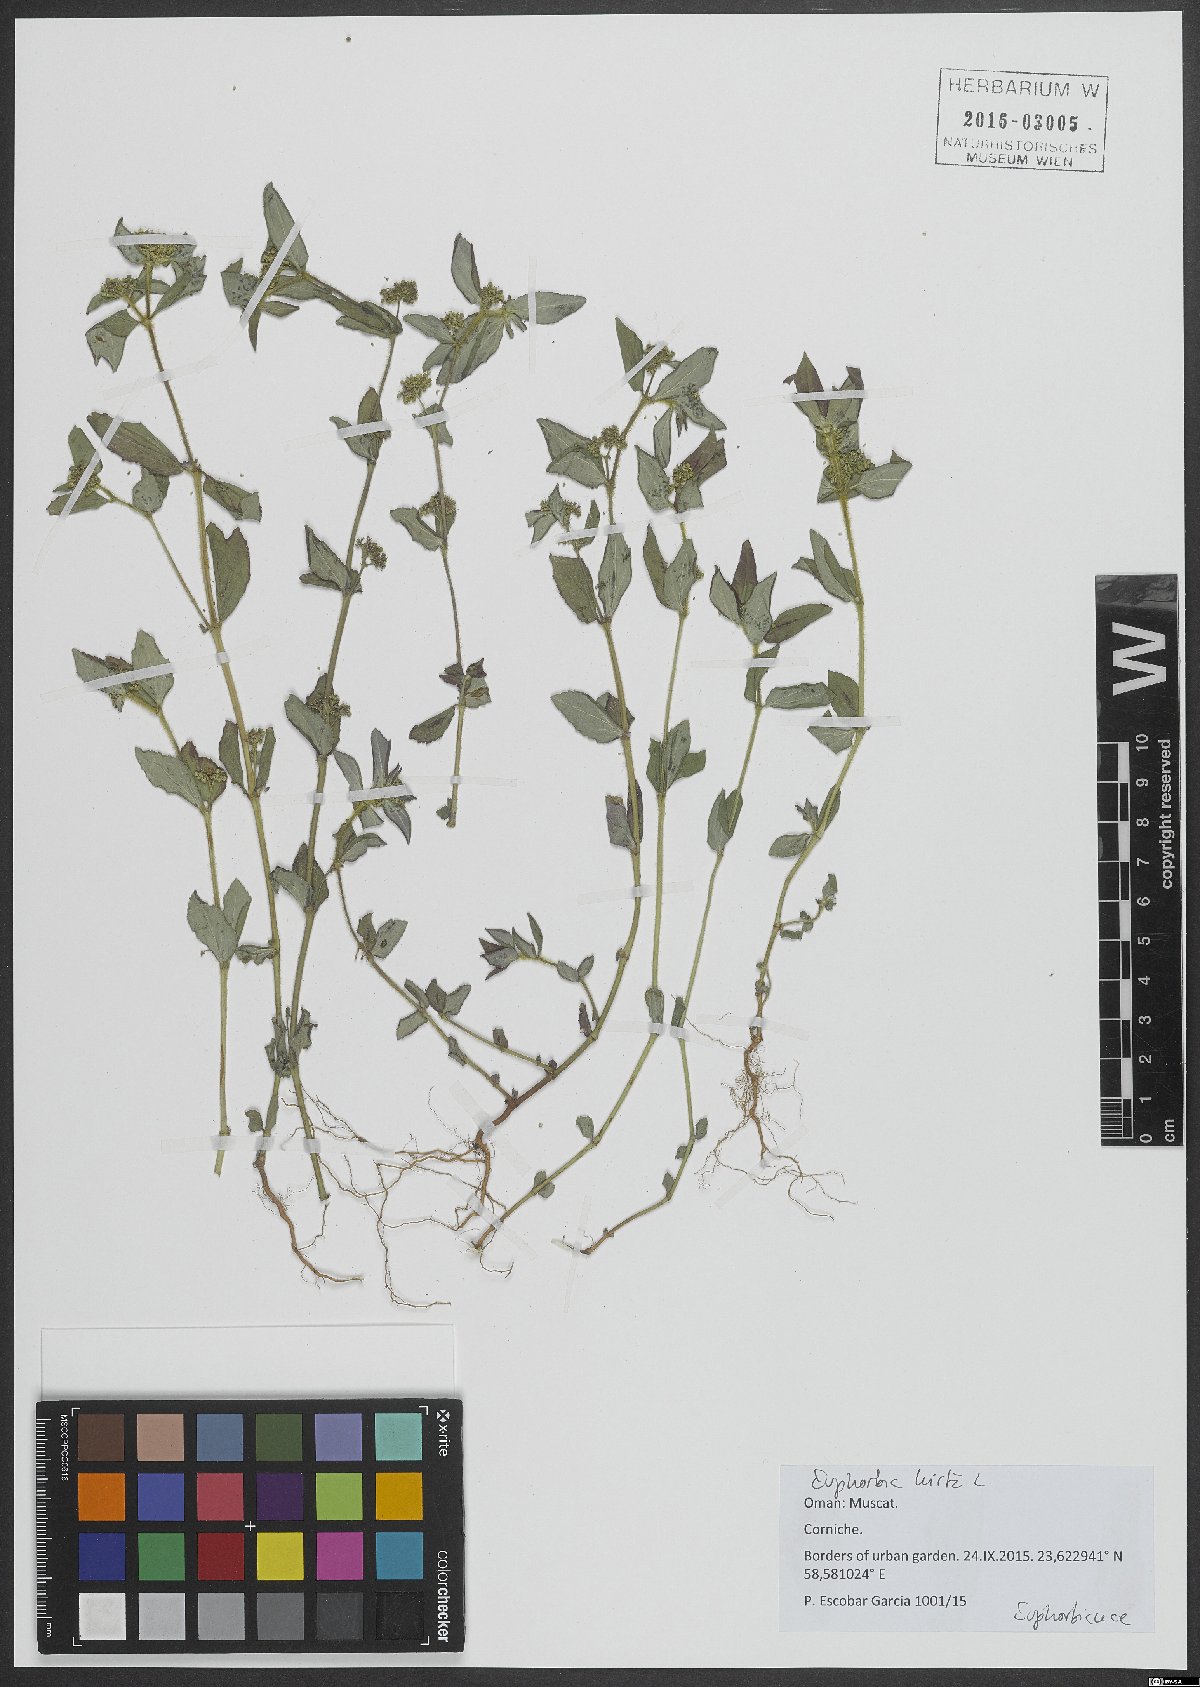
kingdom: Plantae
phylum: Tracheophyta
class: Magnoliopsida
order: Malpighiales
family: Euphorbiaceae
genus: Euphorbia
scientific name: Euphorbia hirta
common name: Pillpod sandmat
